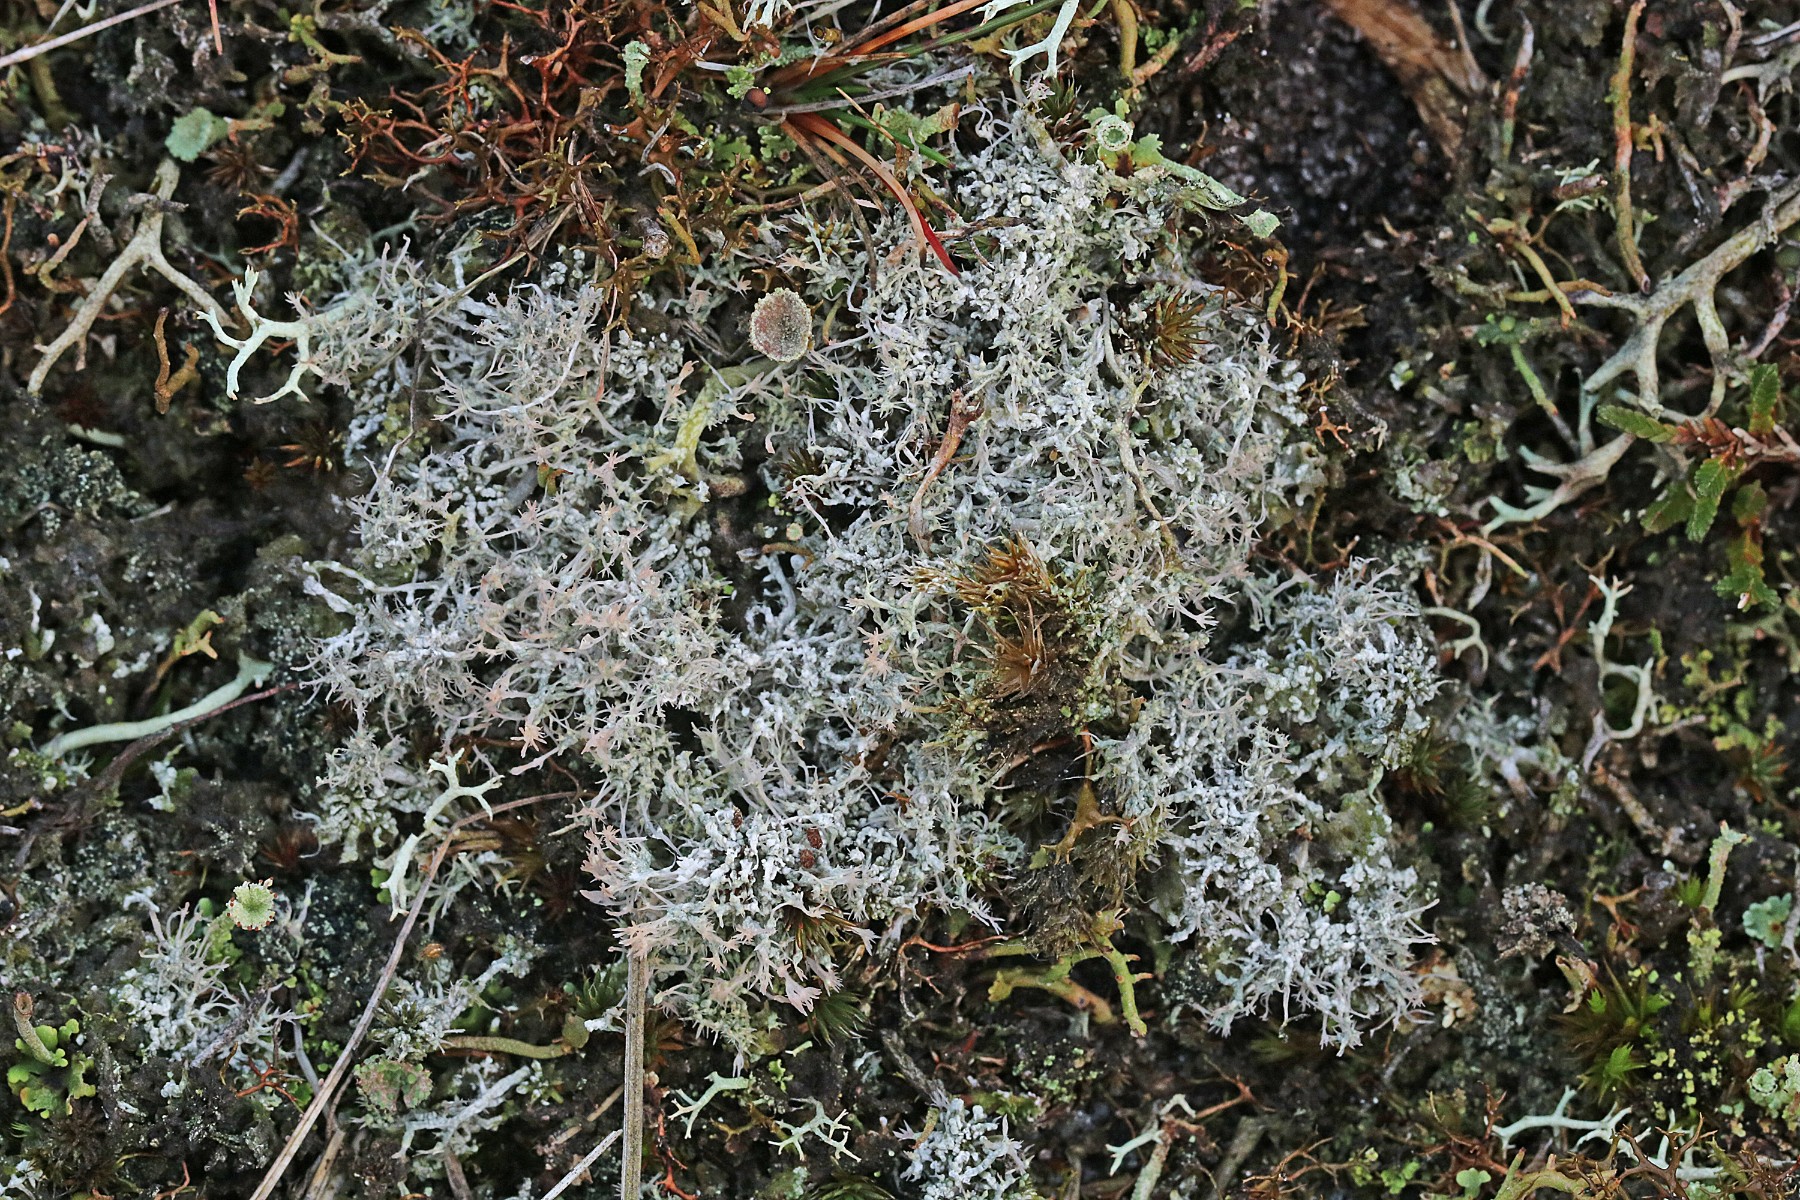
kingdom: Fungi
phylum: Ascomycota
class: Lecanoromycetes
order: Pertusariales
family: Ochrolechiaceae
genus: Ochrolechia
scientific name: Ochrolechia frigida
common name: fjeld-blegskivelav
